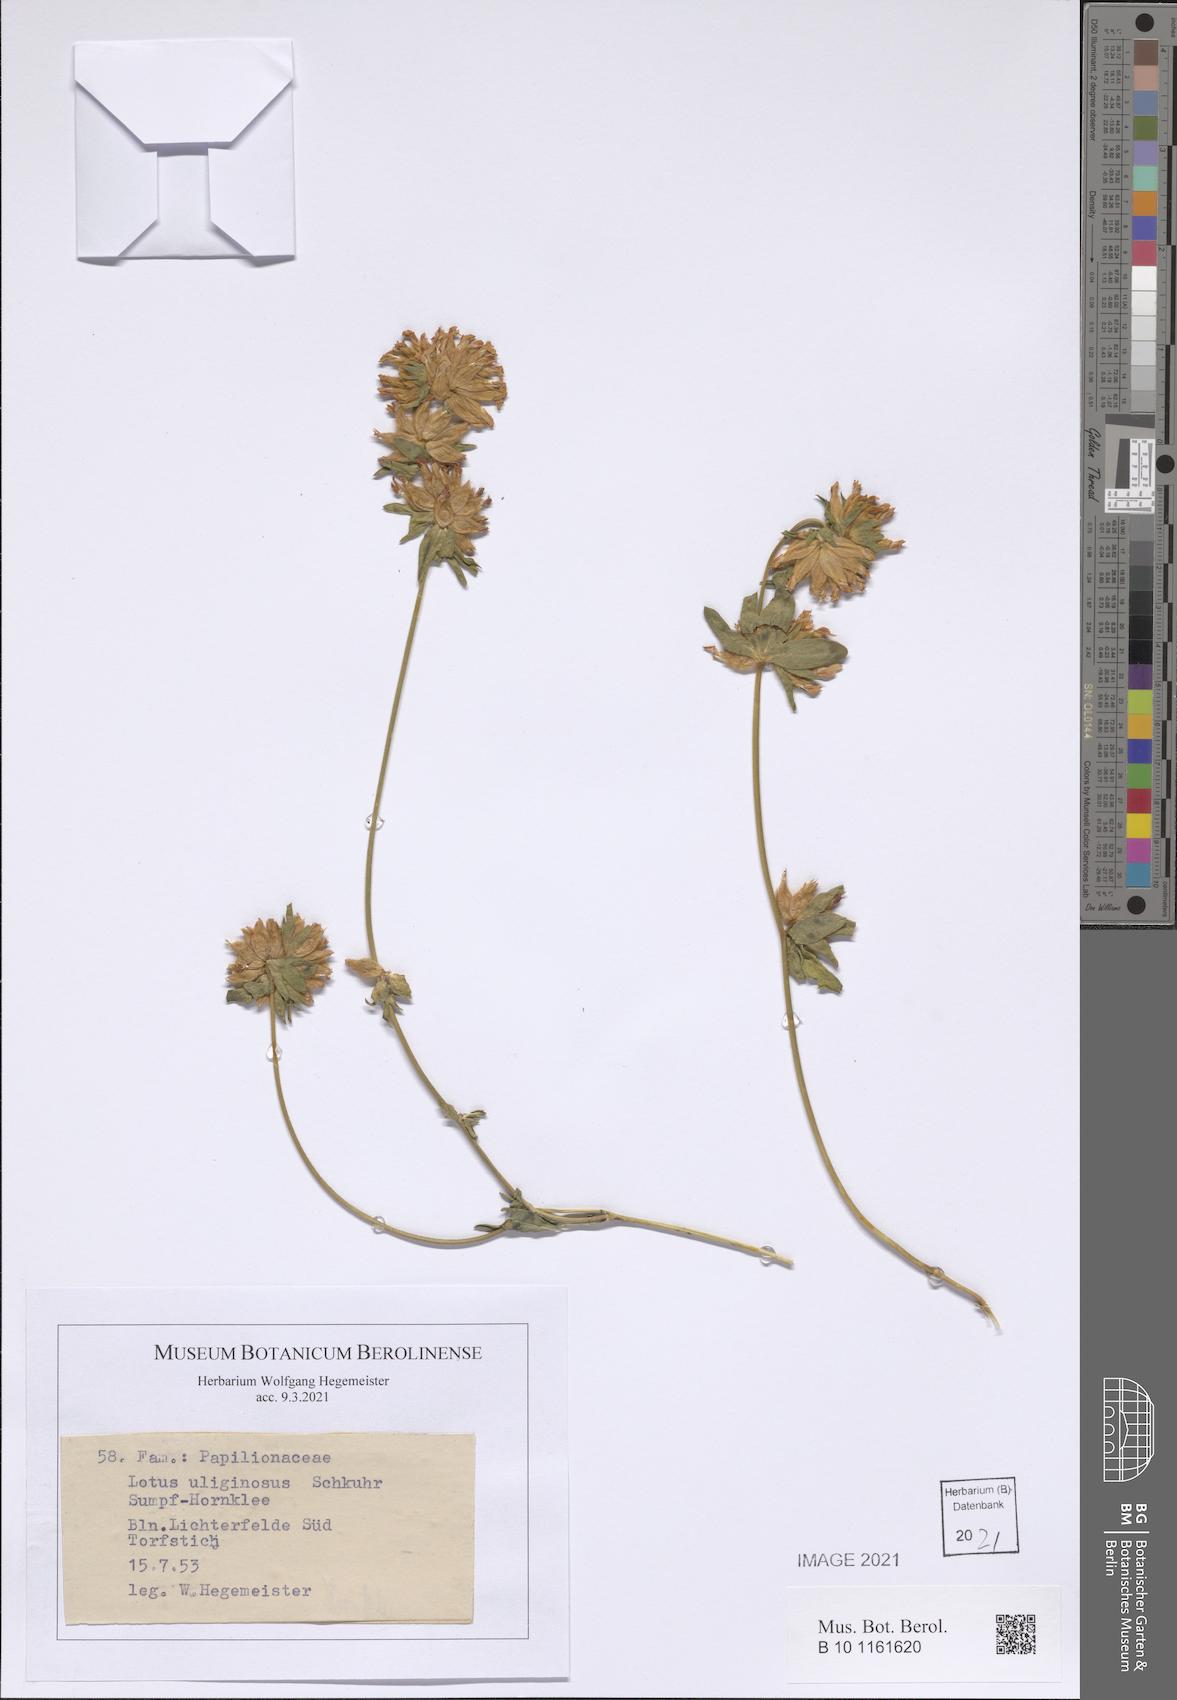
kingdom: Plantae
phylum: Tracheophyta
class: Magnoliopsida
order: Fabales
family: Fabaceae
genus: Lotus
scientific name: Lotus pedunculatus
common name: Greater birdsfoot-trefoil
